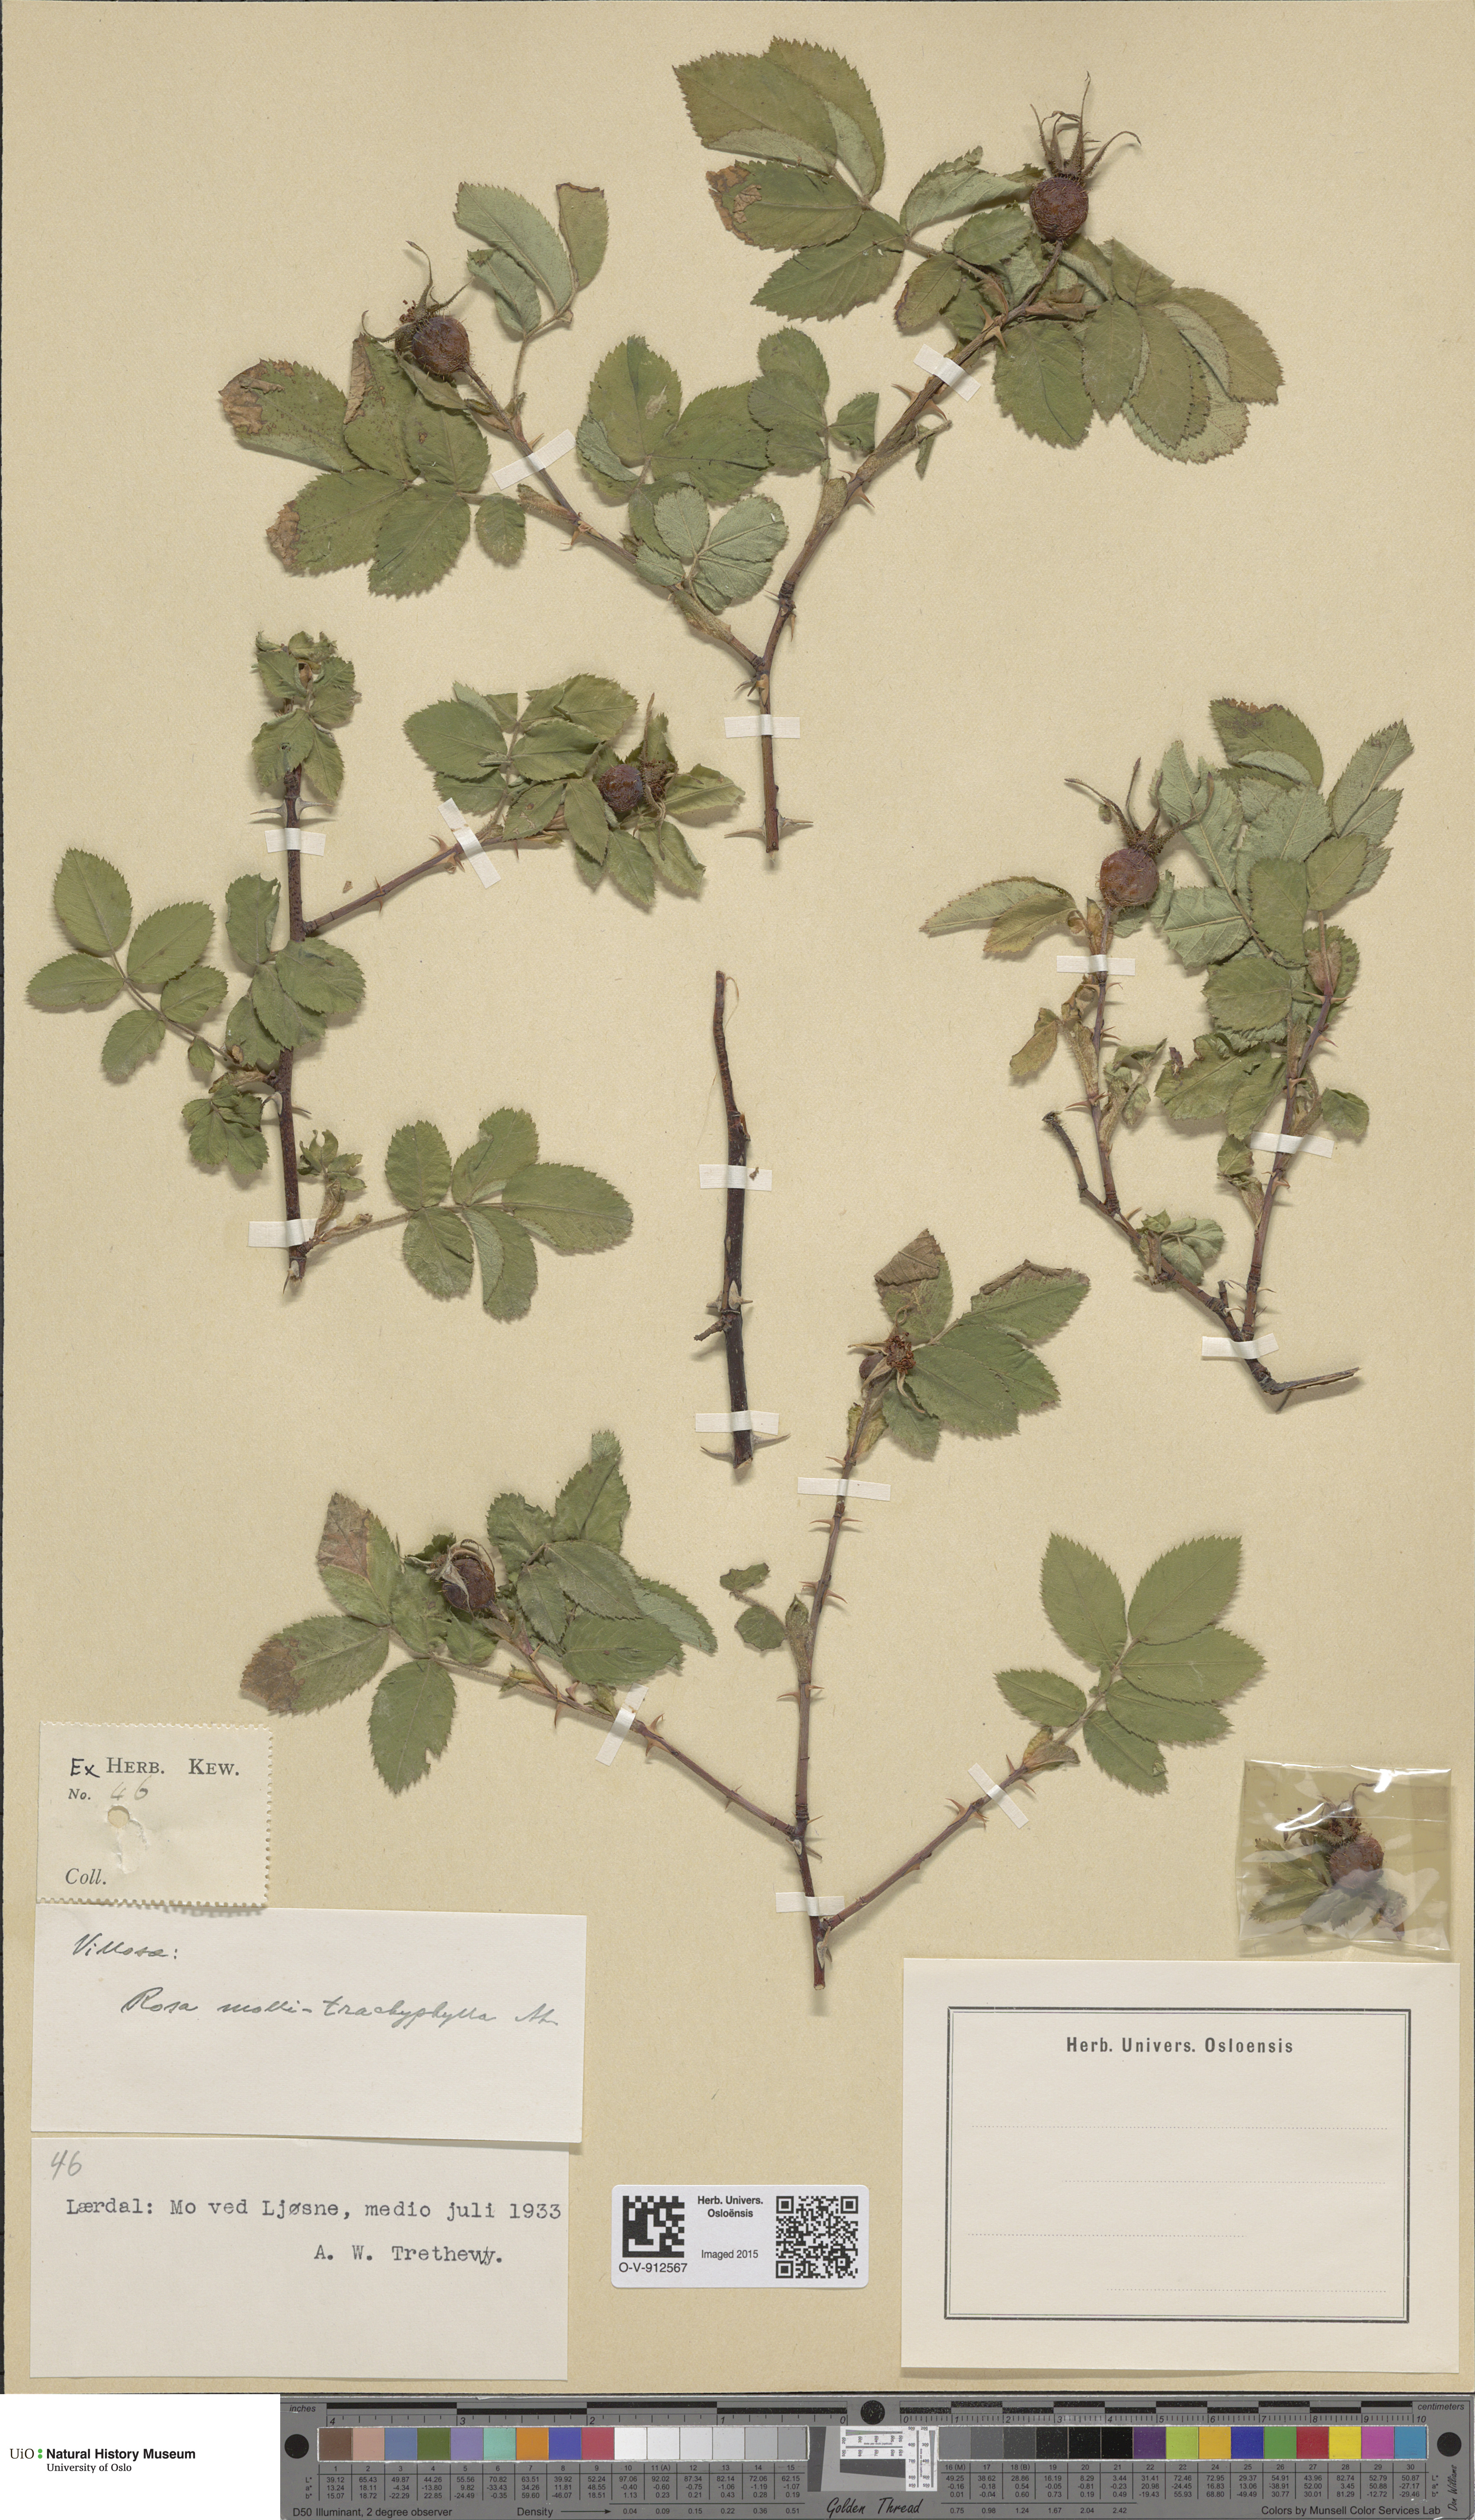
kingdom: Plantae
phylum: Tracheophyta
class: Magnoliopsida
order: Rosales
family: Rosaceae
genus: Rosa
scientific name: Rosa mollis
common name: Rose
